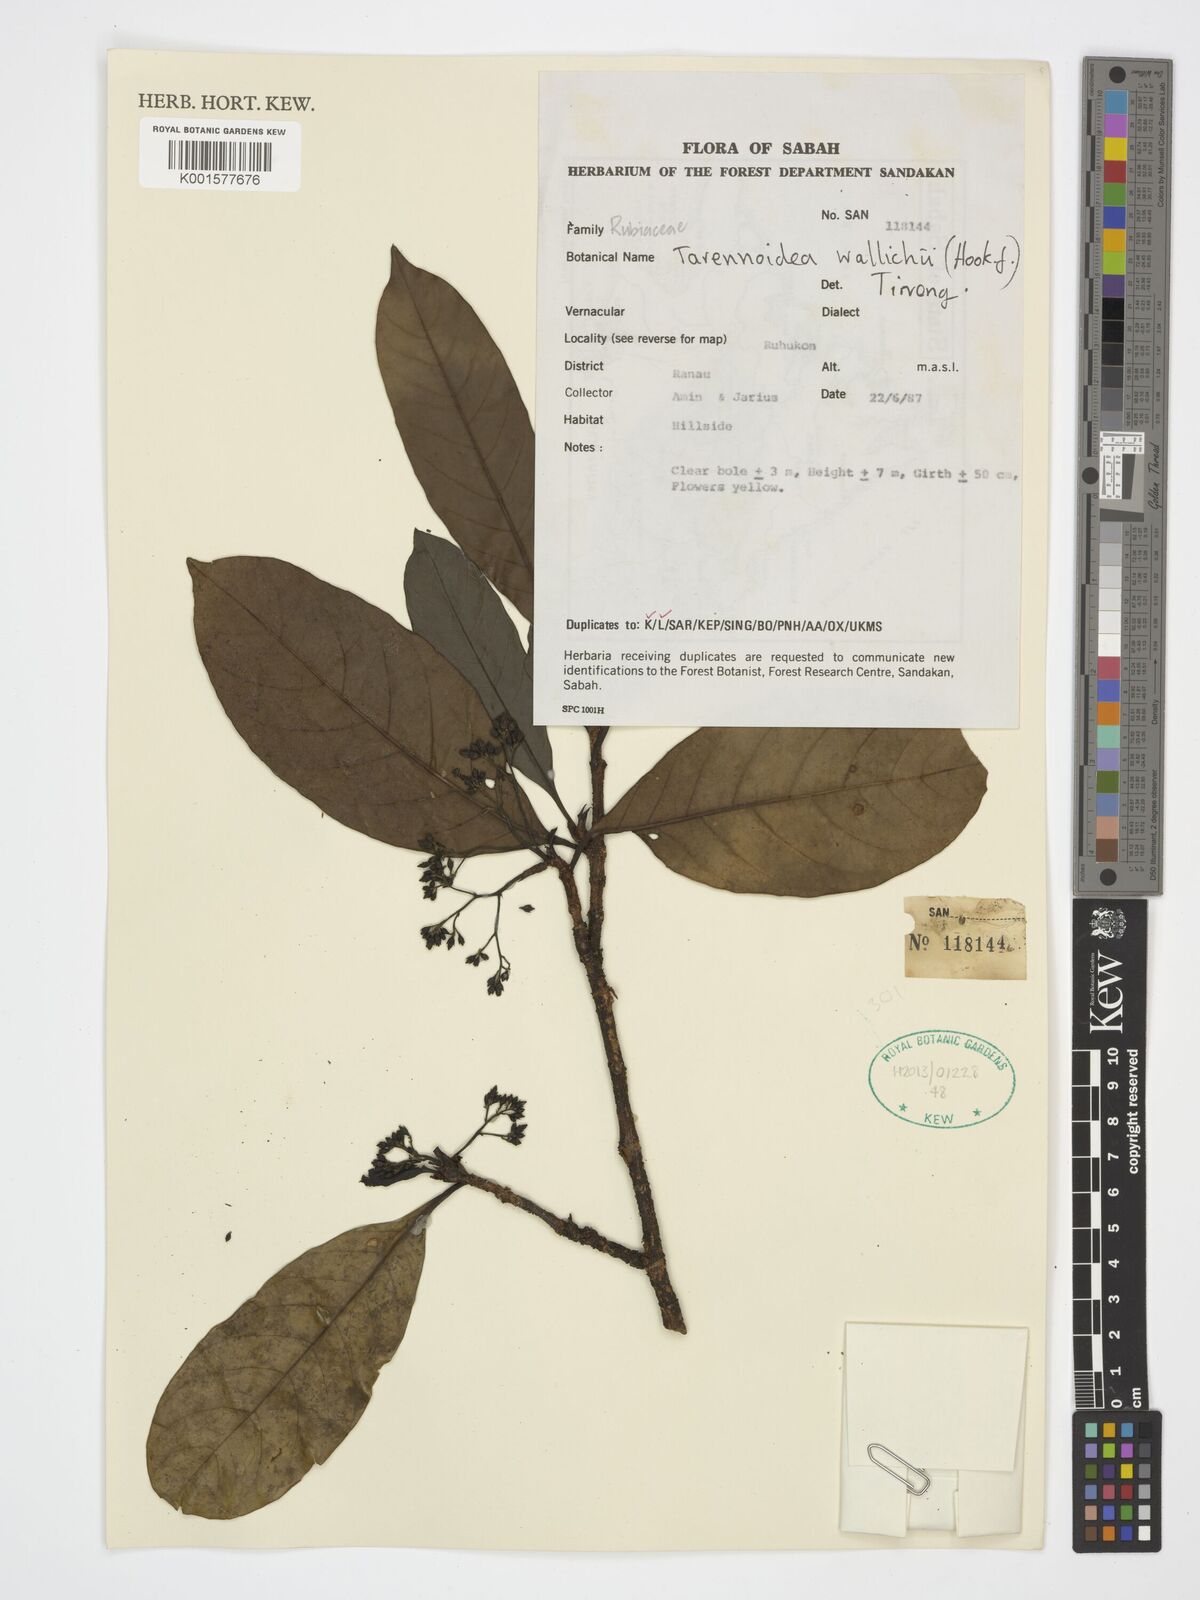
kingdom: Plantae
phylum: Tracheophyta
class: Magnoliopsida
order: Gentianales
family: Rubiaceae
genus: Tarennoidea
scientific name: Tarennoidea wallichii
